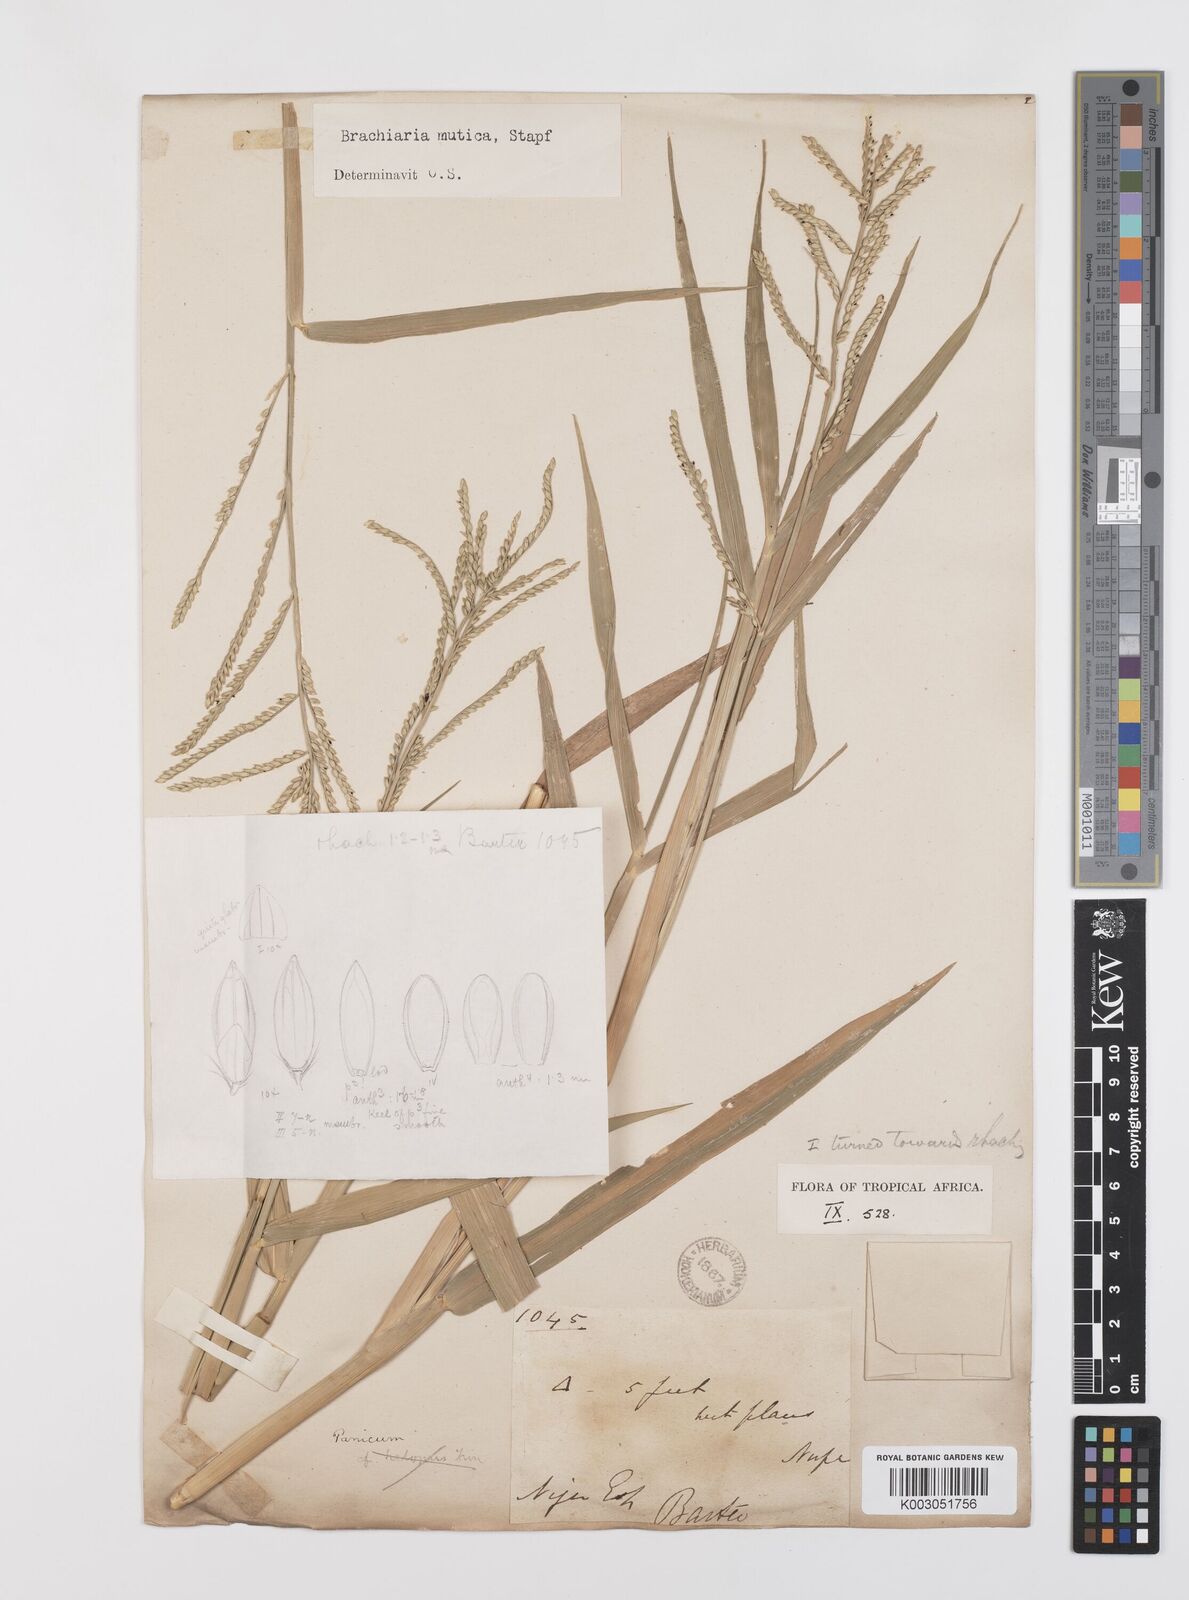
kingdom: Plantae
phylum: Tracheophyta
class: Liliopsida
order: Poales
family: Poaceae
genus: Urochloa
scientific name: Urochloa arrecta
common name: African signalgrass
